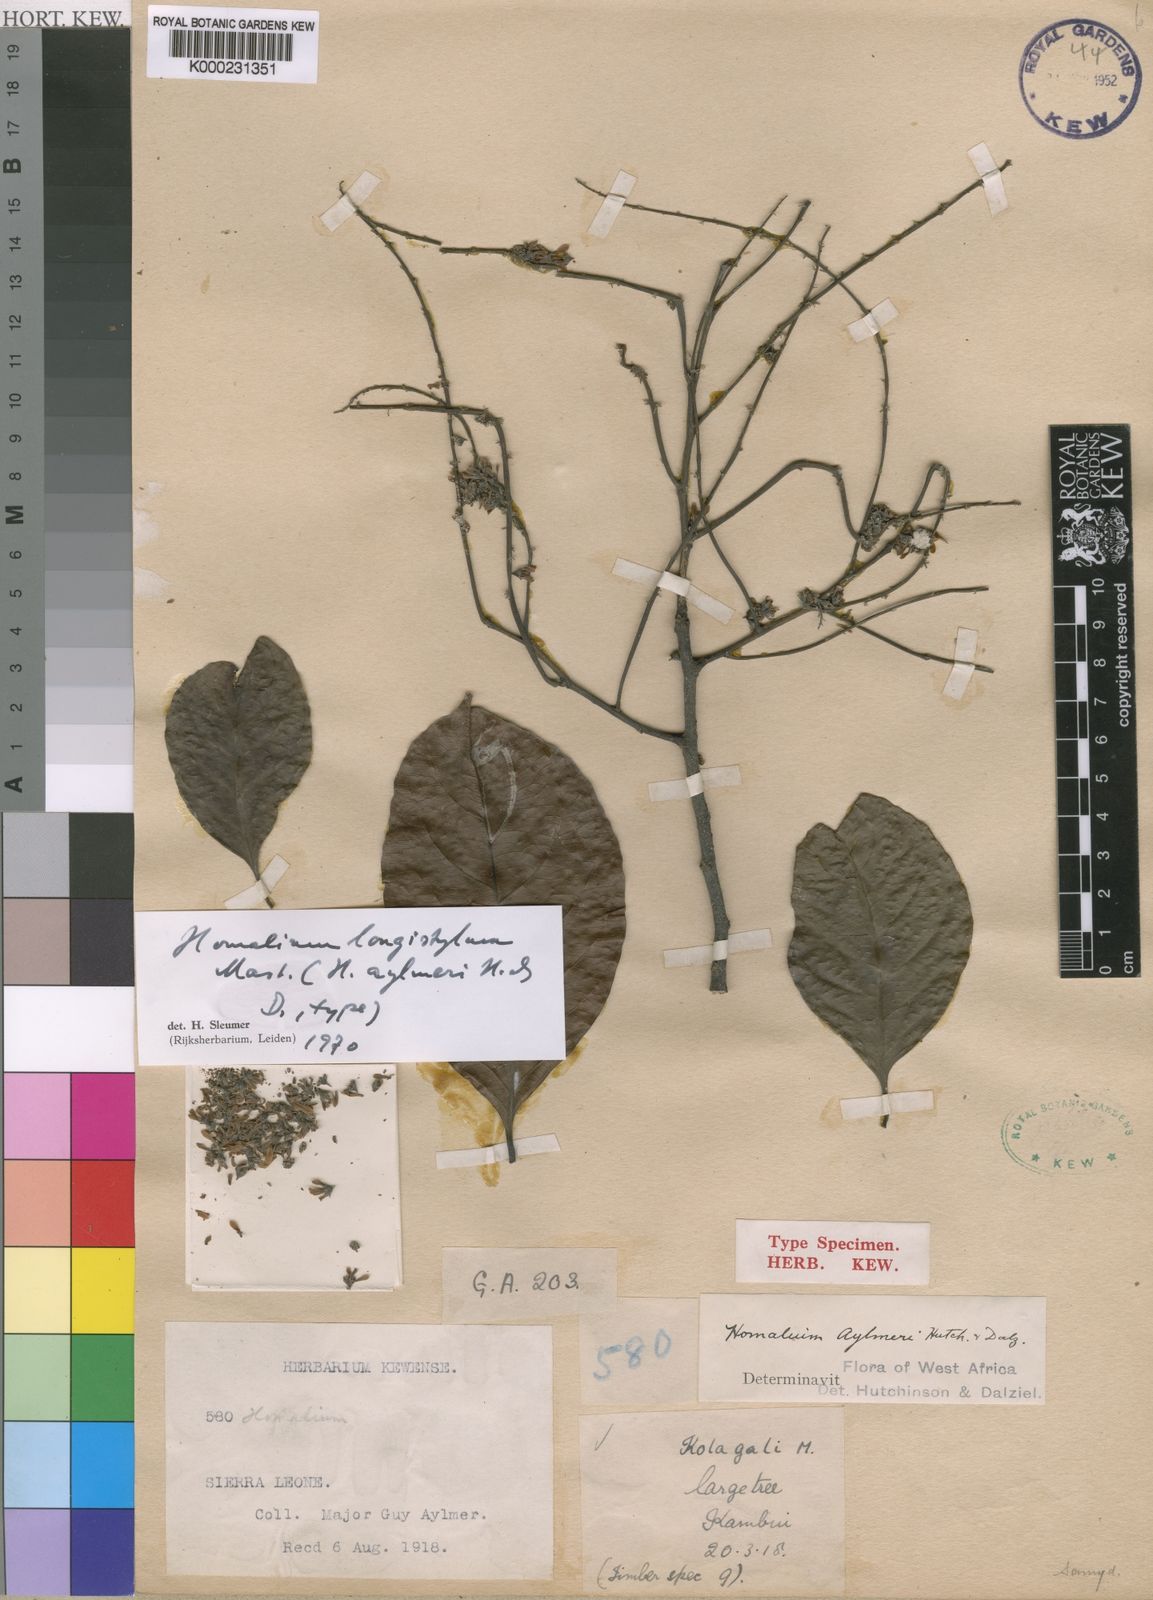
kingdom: Plantae
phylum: Tracheophyta
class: Magnoliopsida
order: Malpighiales
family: Salicaceae
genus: Homalium
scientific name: Homalium longistylum
